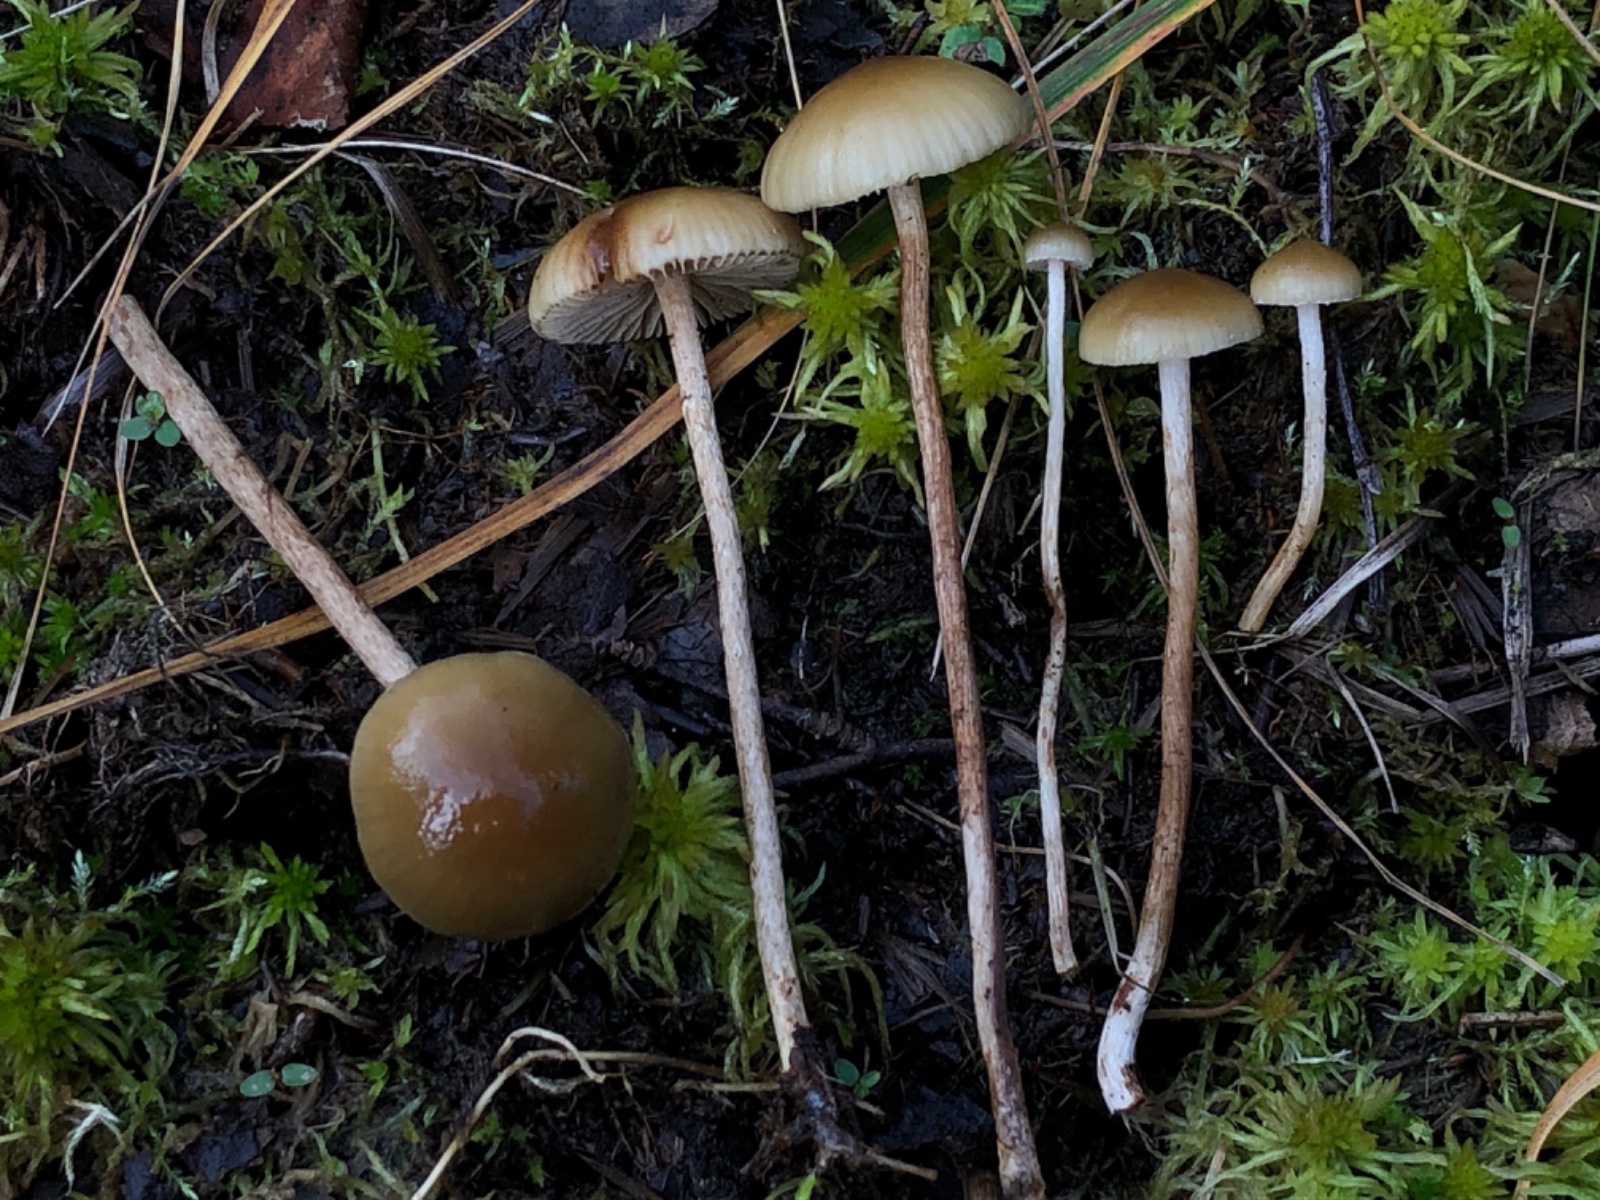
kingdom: Fungi
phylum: Basidiomycota
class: Agaricomycetes
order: Agaricales
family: Strophariaceae
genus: Hypholoma
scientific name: Hypholoma myosotis
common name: slimet svovlhat
